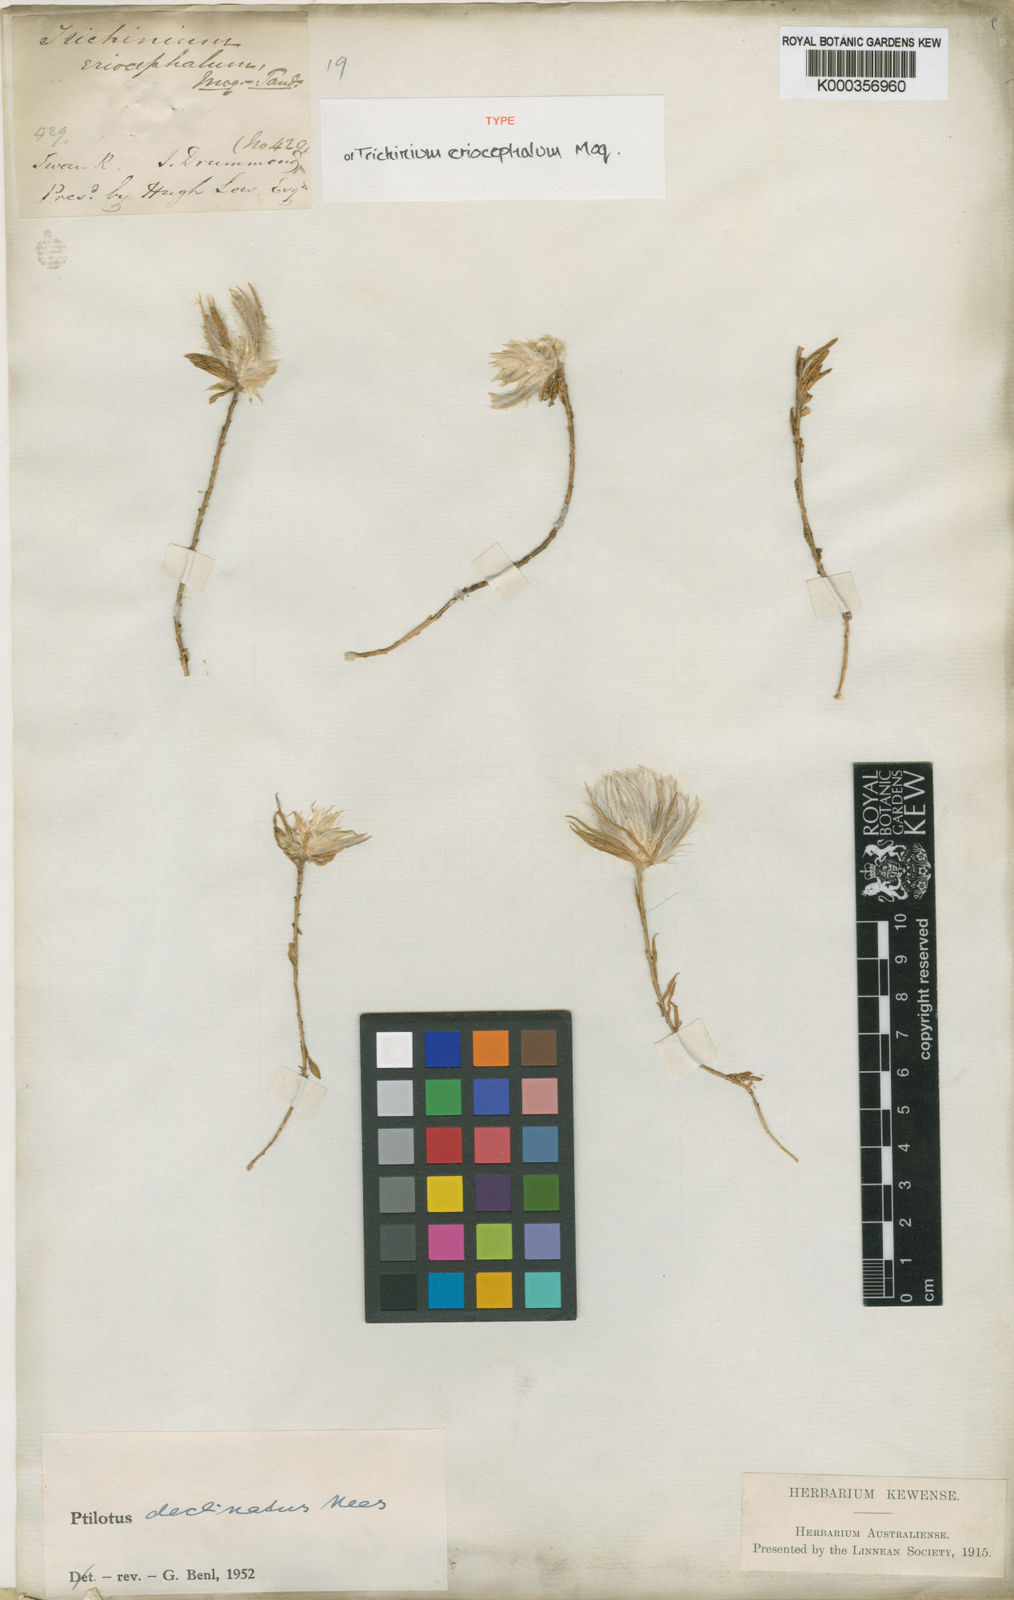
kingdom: Plantae
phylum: Tracheophyta
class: Magnoliopsida
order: Caryophyllales
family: Amaranthaceae
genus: Ptilotus
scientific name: Ptilotus declinatus
